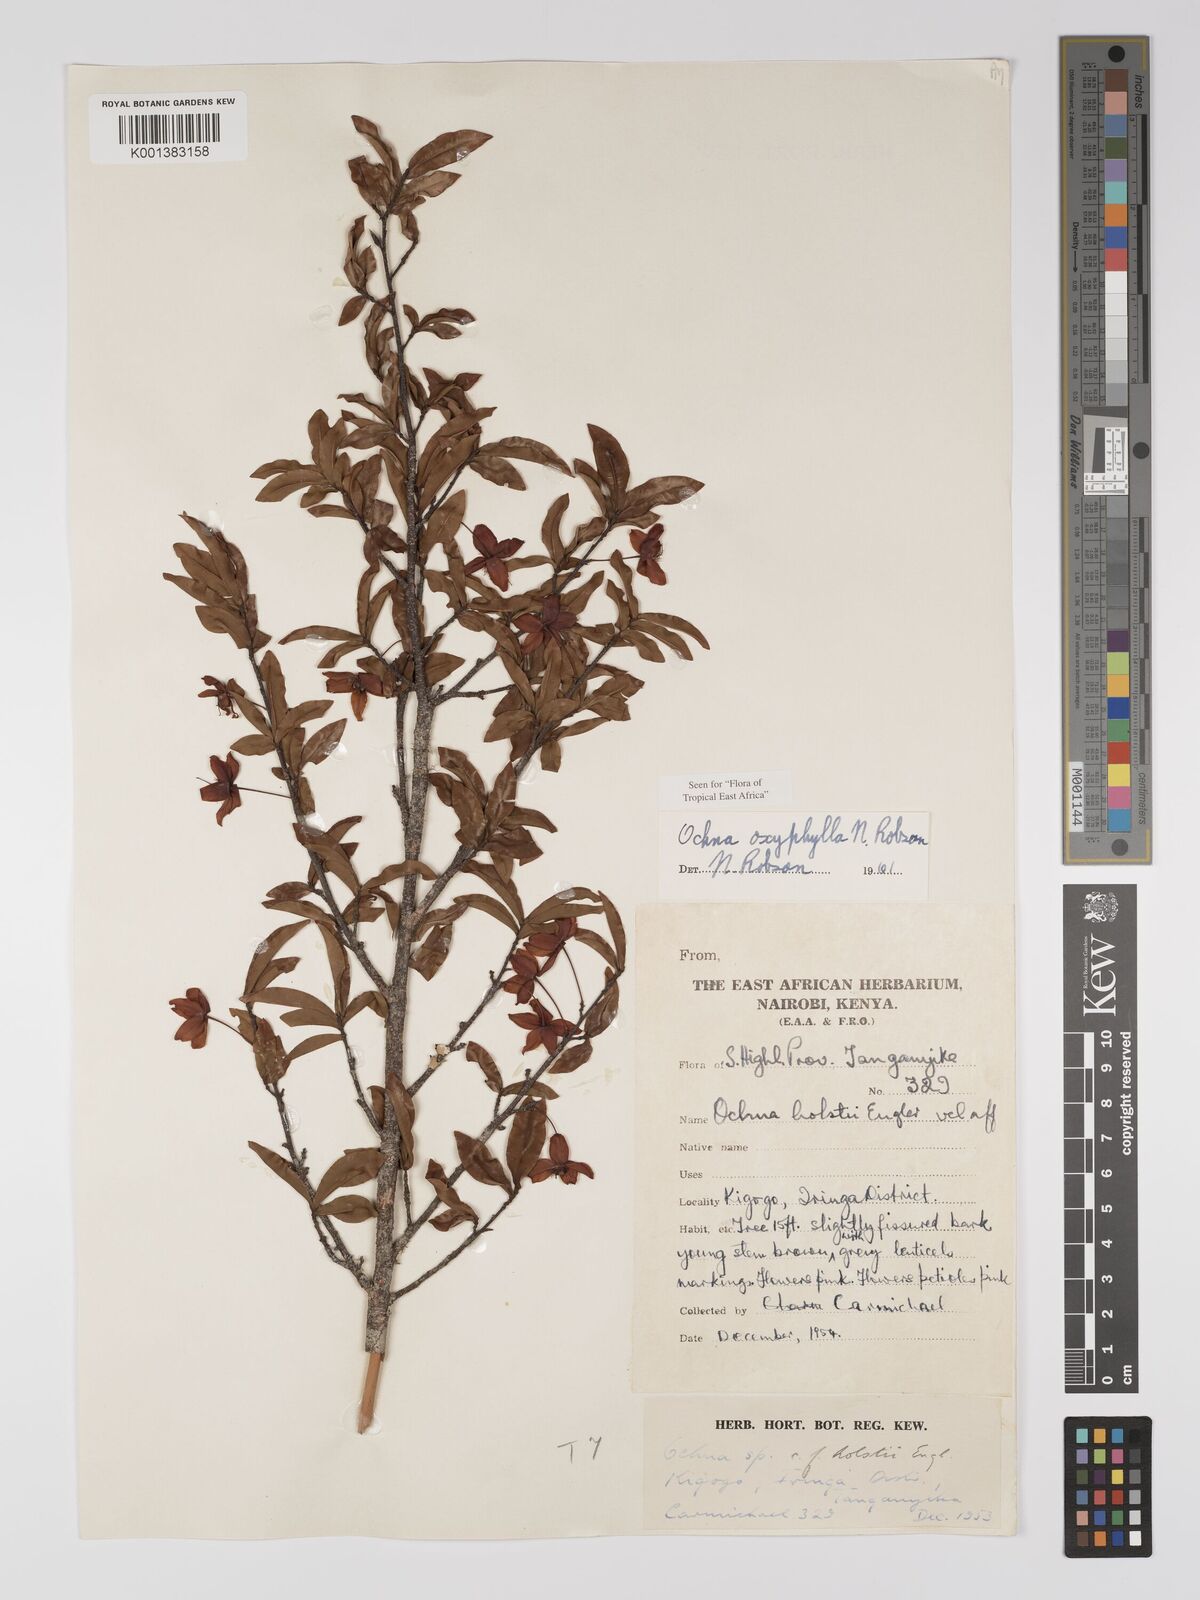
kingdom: Plantae
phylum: Tracheophyta
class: Magnoliopsida
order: Malpighiales
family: Ochnaceae
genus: Ochna
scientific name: Ochna oxyphylla
